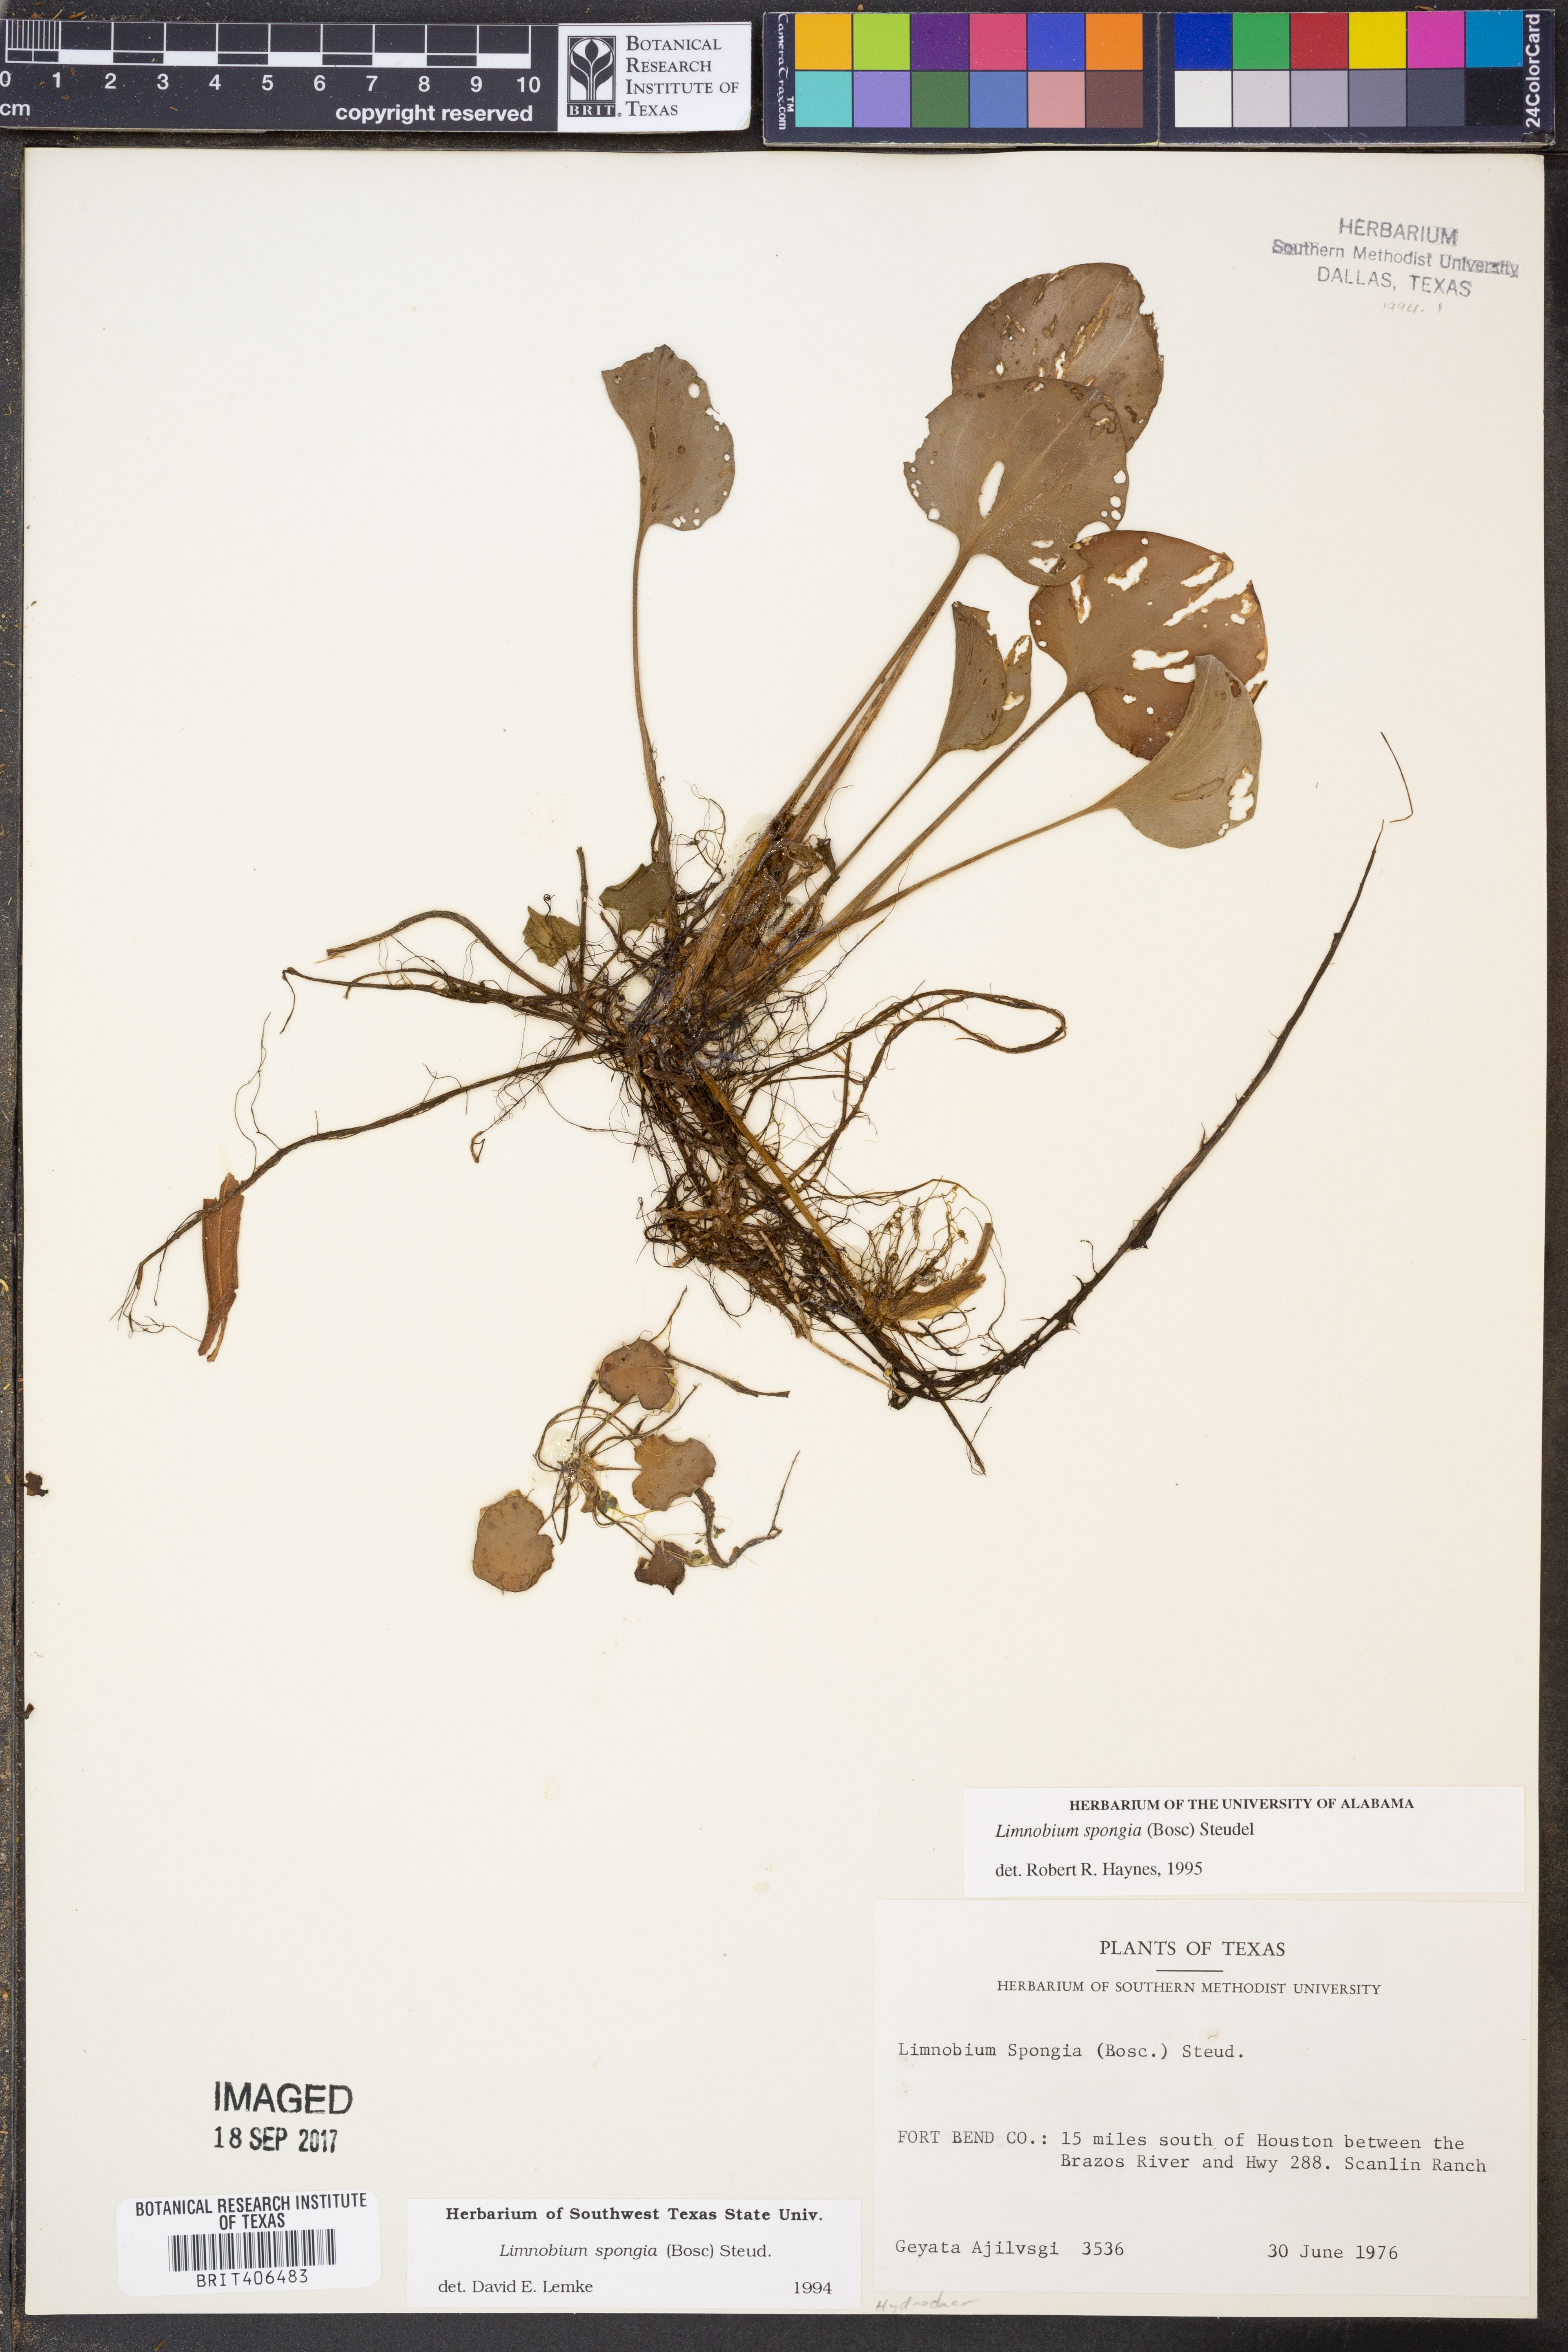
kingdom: Plantae
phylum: Tracheophyta
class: Liliopsida
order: Alismatales
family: Hydrocharitaceae
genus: Hydrocharis
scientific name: Hydrocharis spongia
